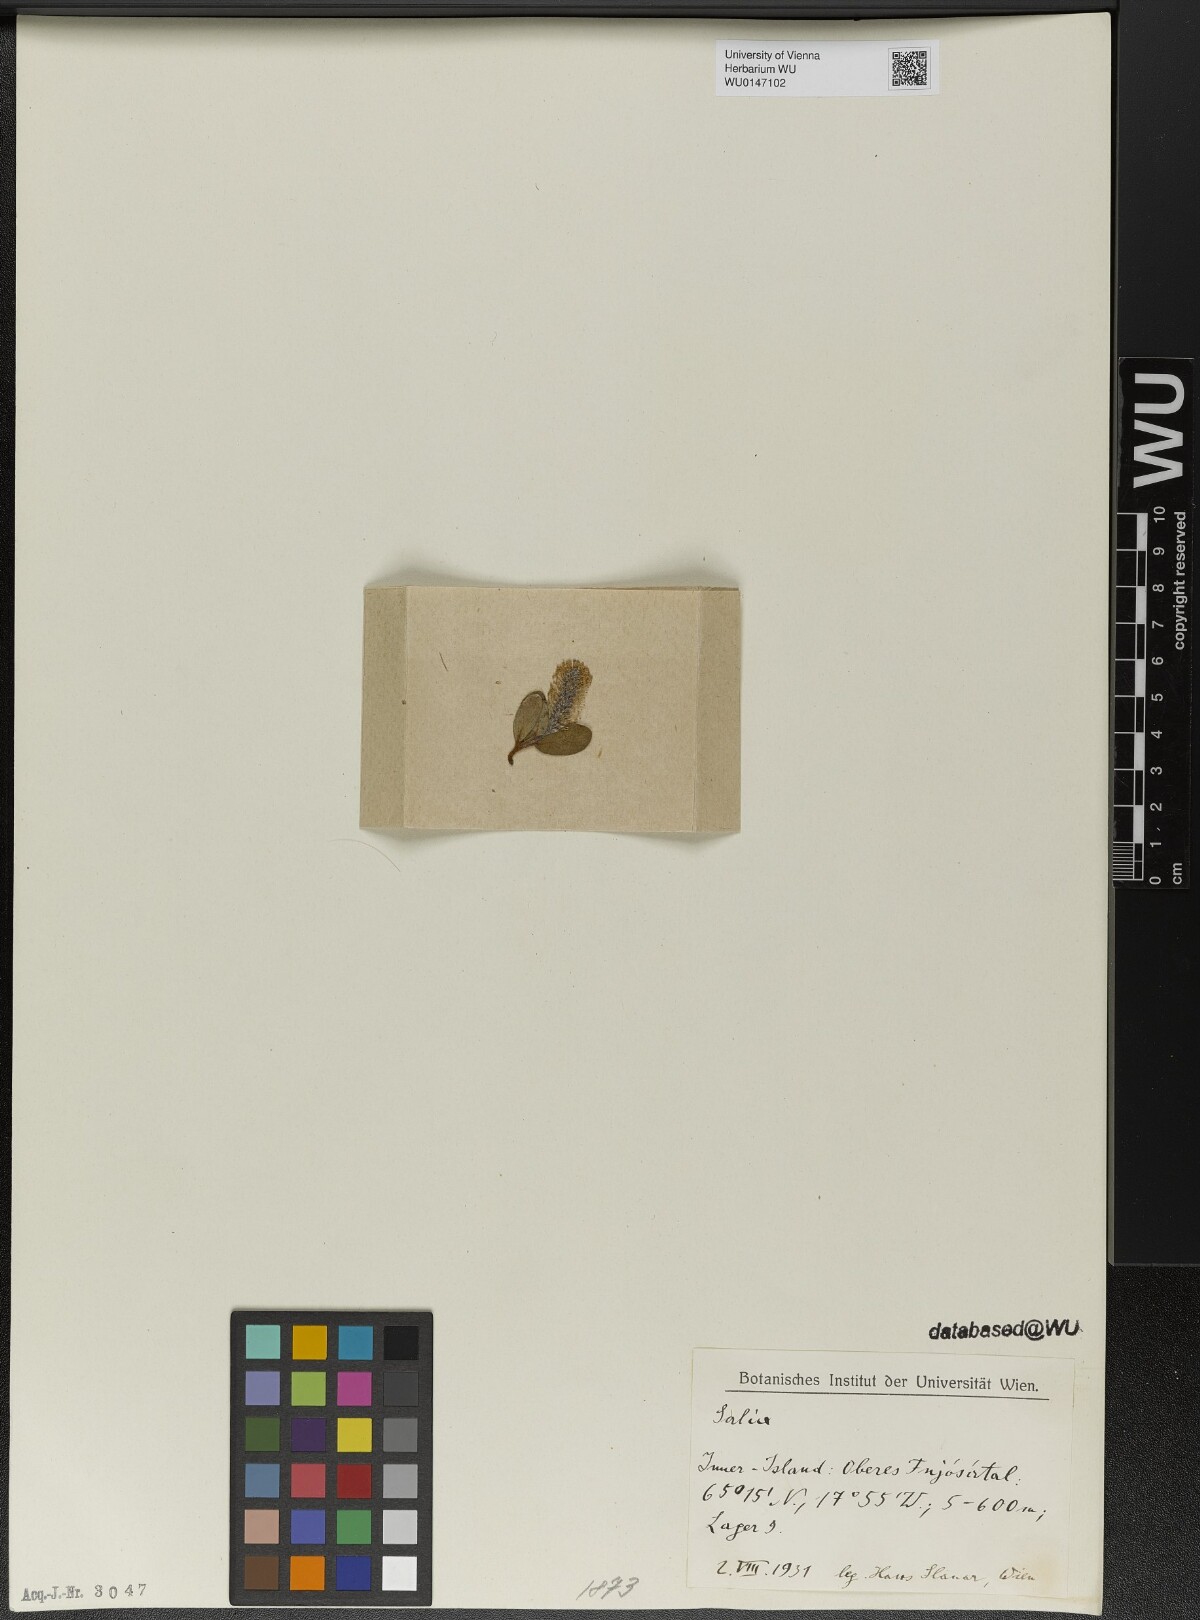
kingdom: Plantae
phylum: Tracheophyta
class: Magnoliopsida
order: Malpighiales
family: Salicaceae
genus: Salix
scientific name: Salix
